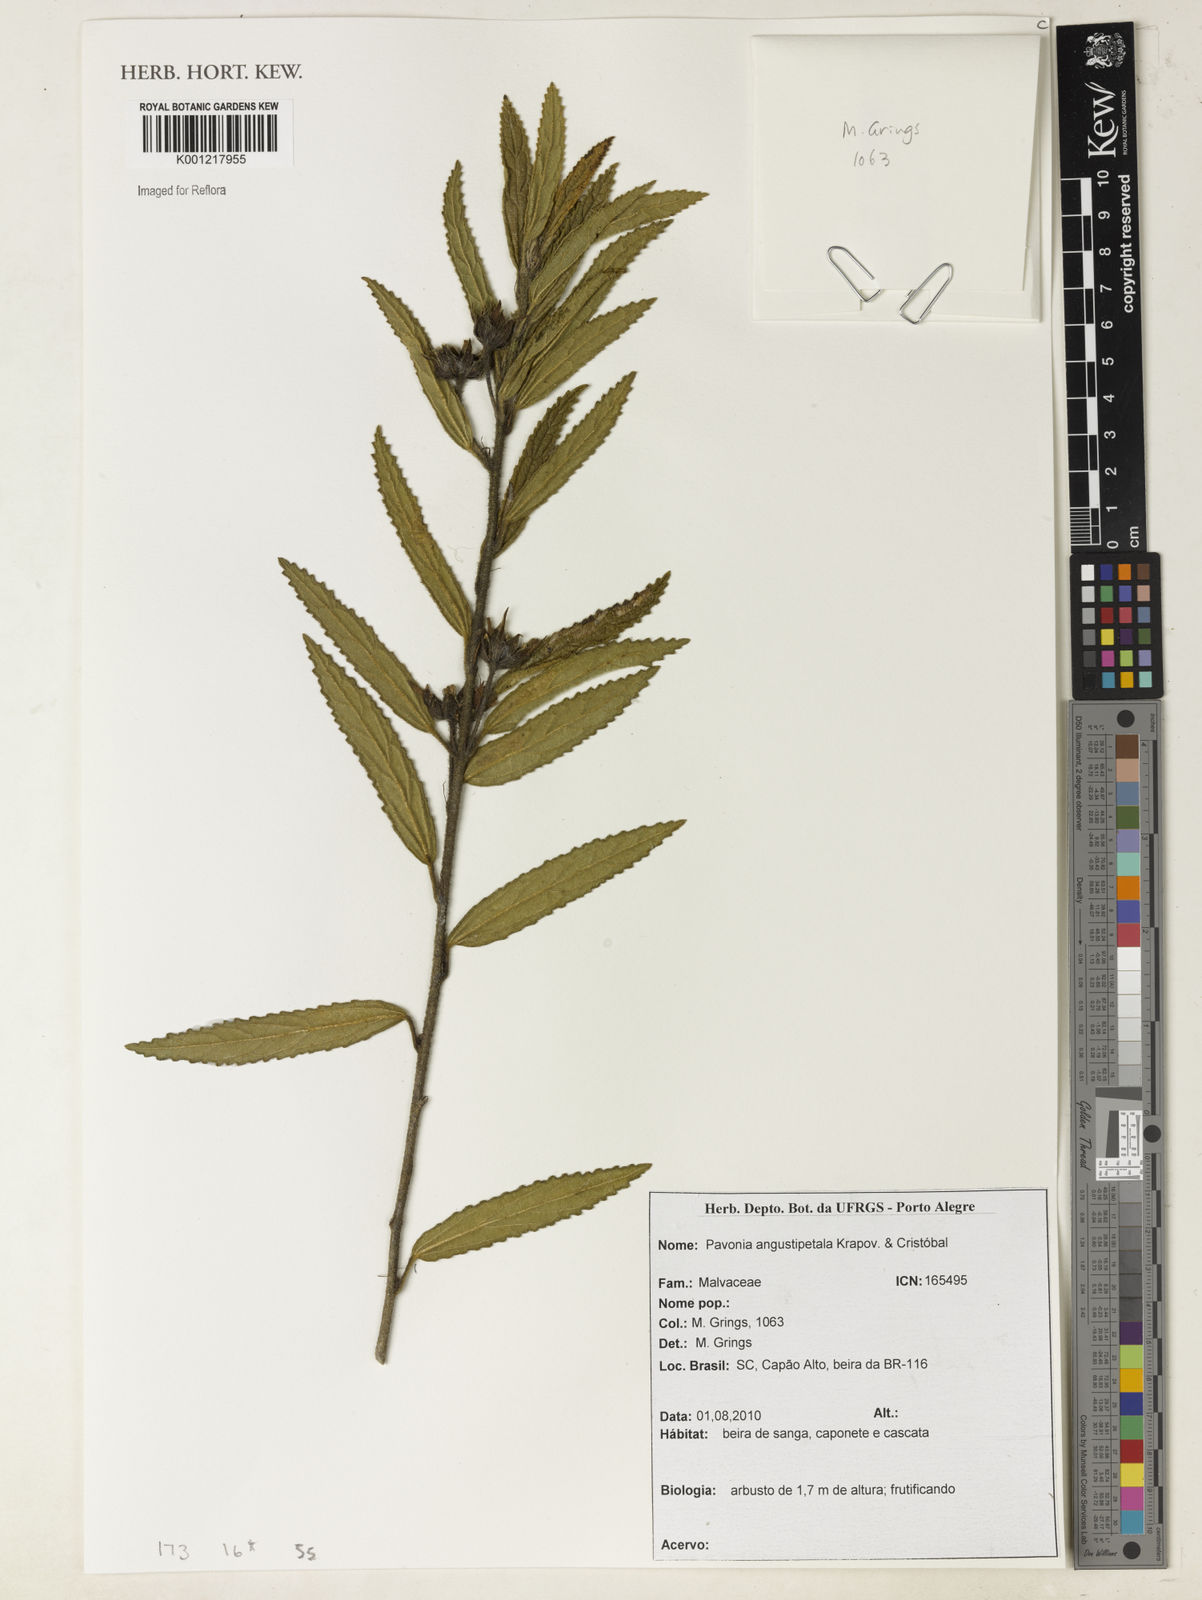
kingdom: Plantae
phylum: Tracheophyta
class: Magnoliopsida
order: Malvales
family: Malvaceae
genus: Pavonia
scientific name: Pavonia
